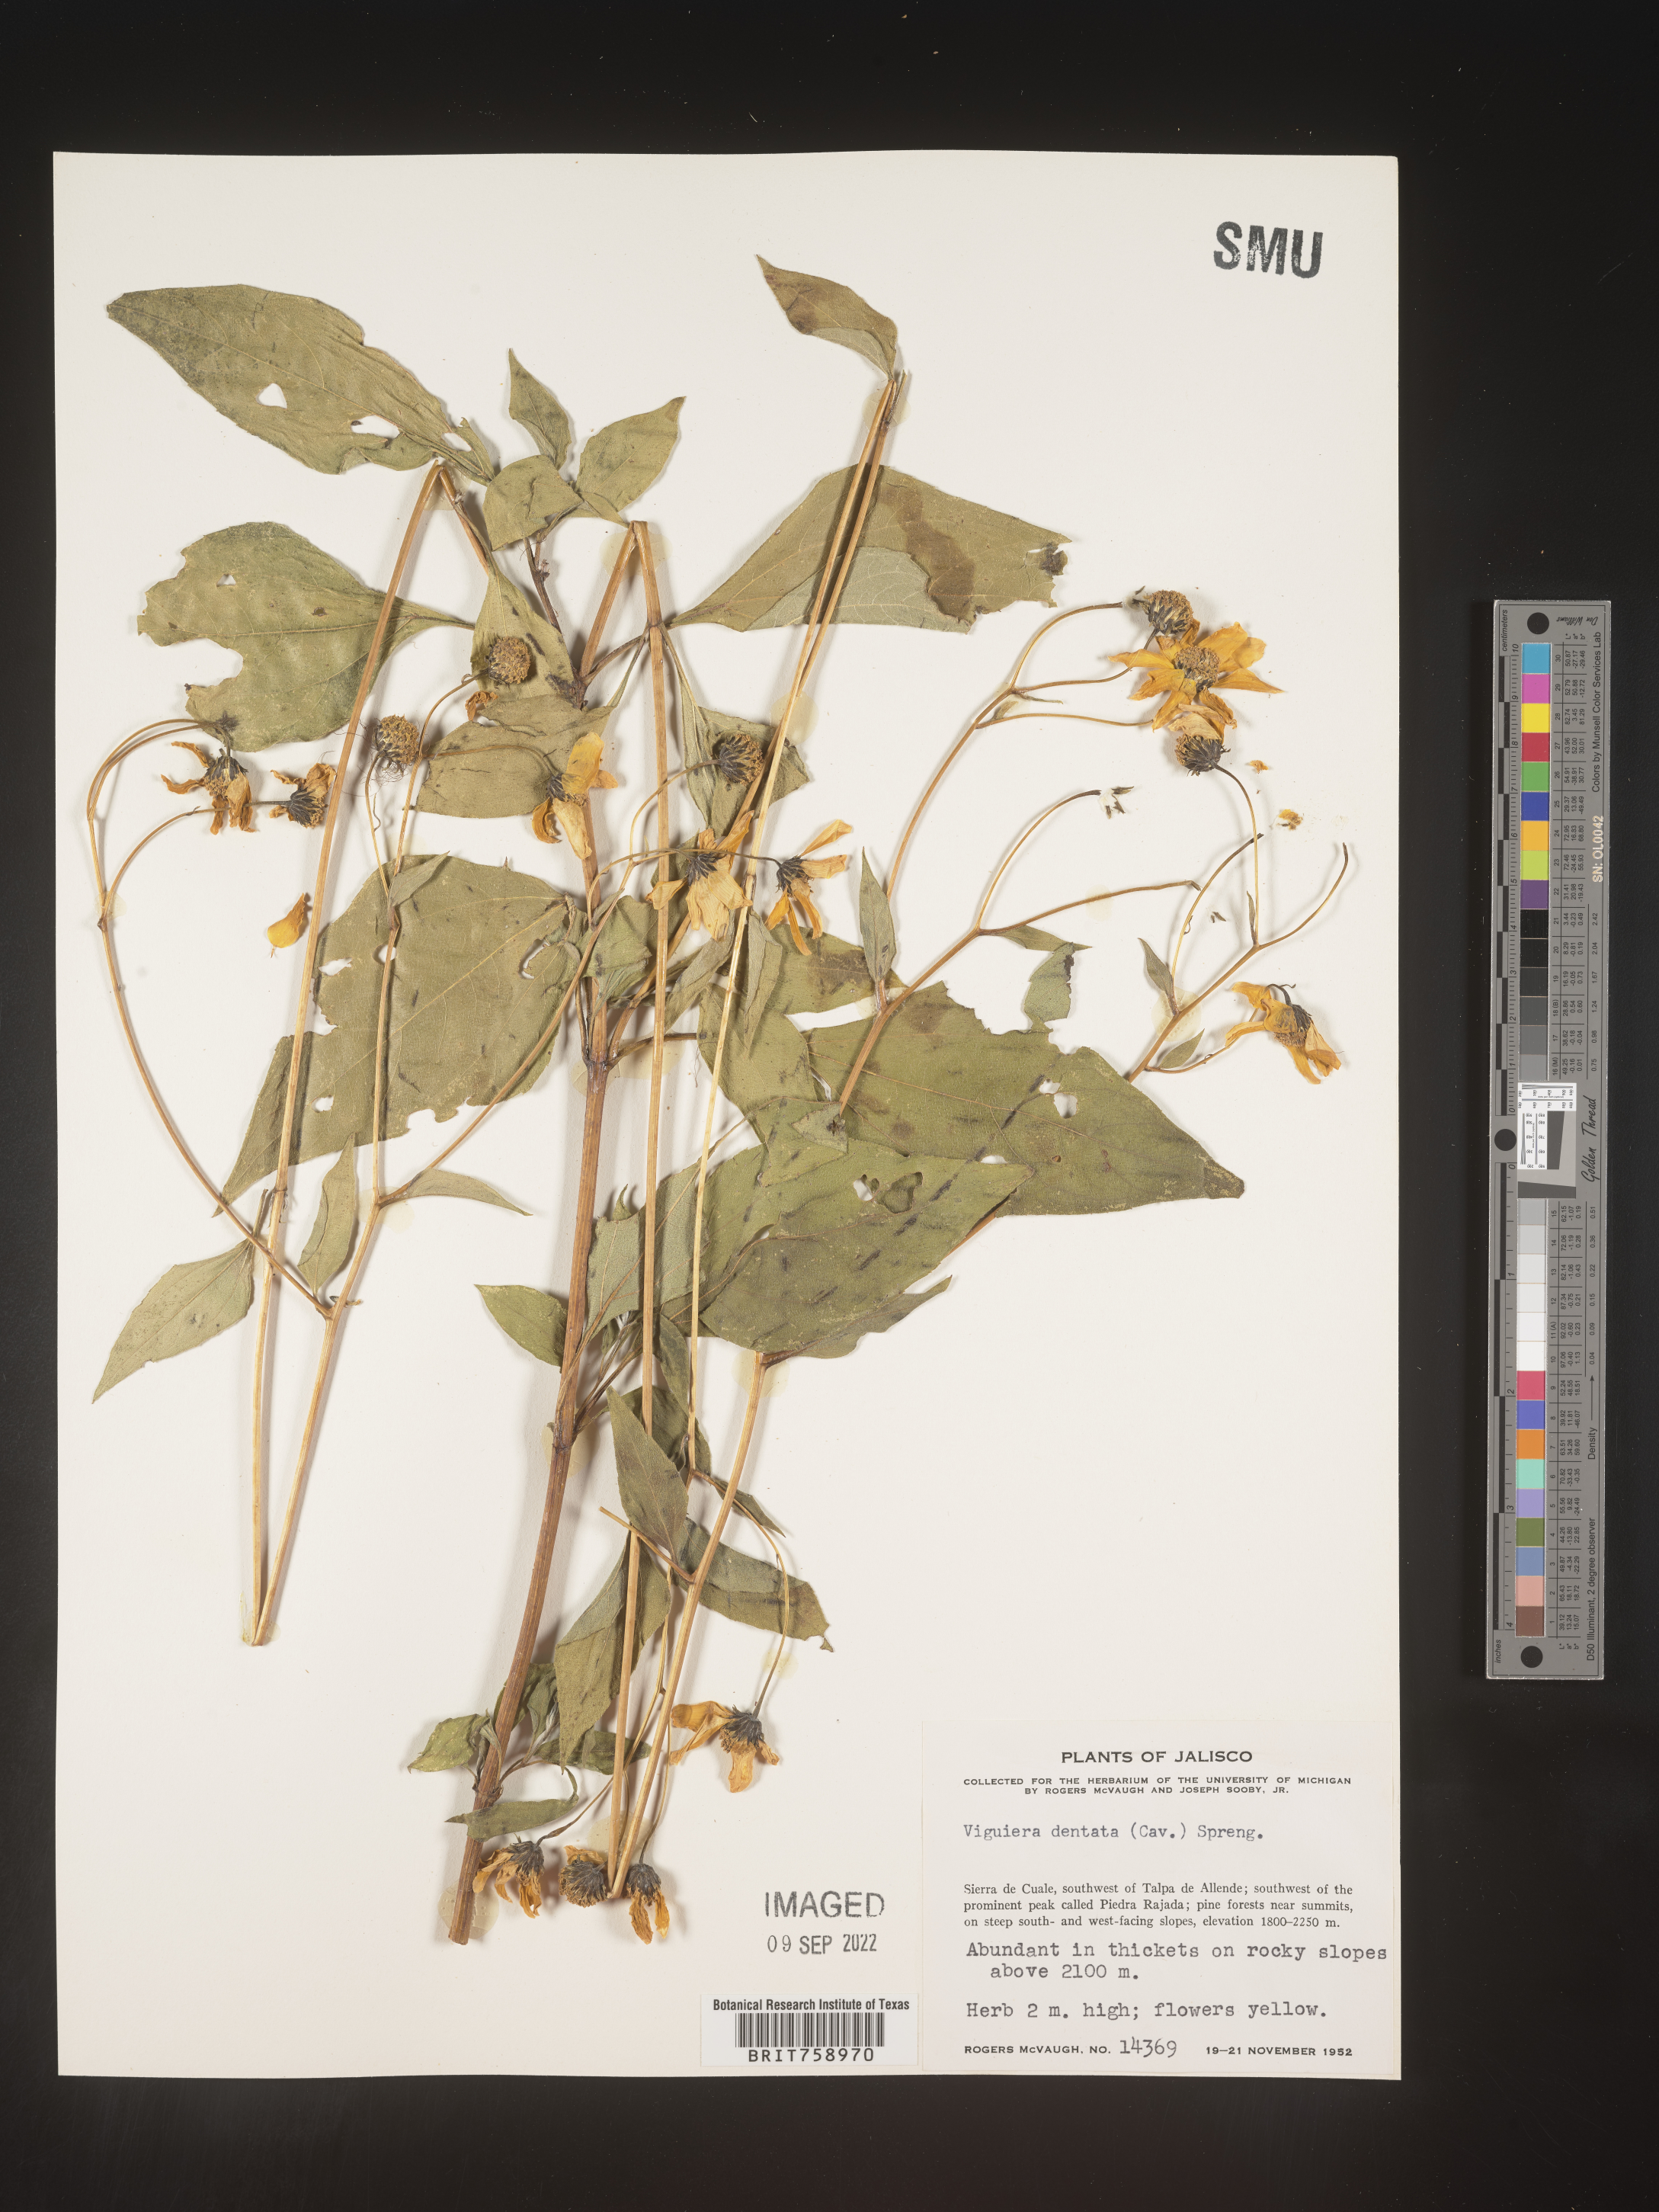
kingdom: Plantae
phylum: Tracheophyta
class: Magnoliopsida
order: Asterales
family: Asteraceae
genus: Viguiera
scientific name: Viguiera
